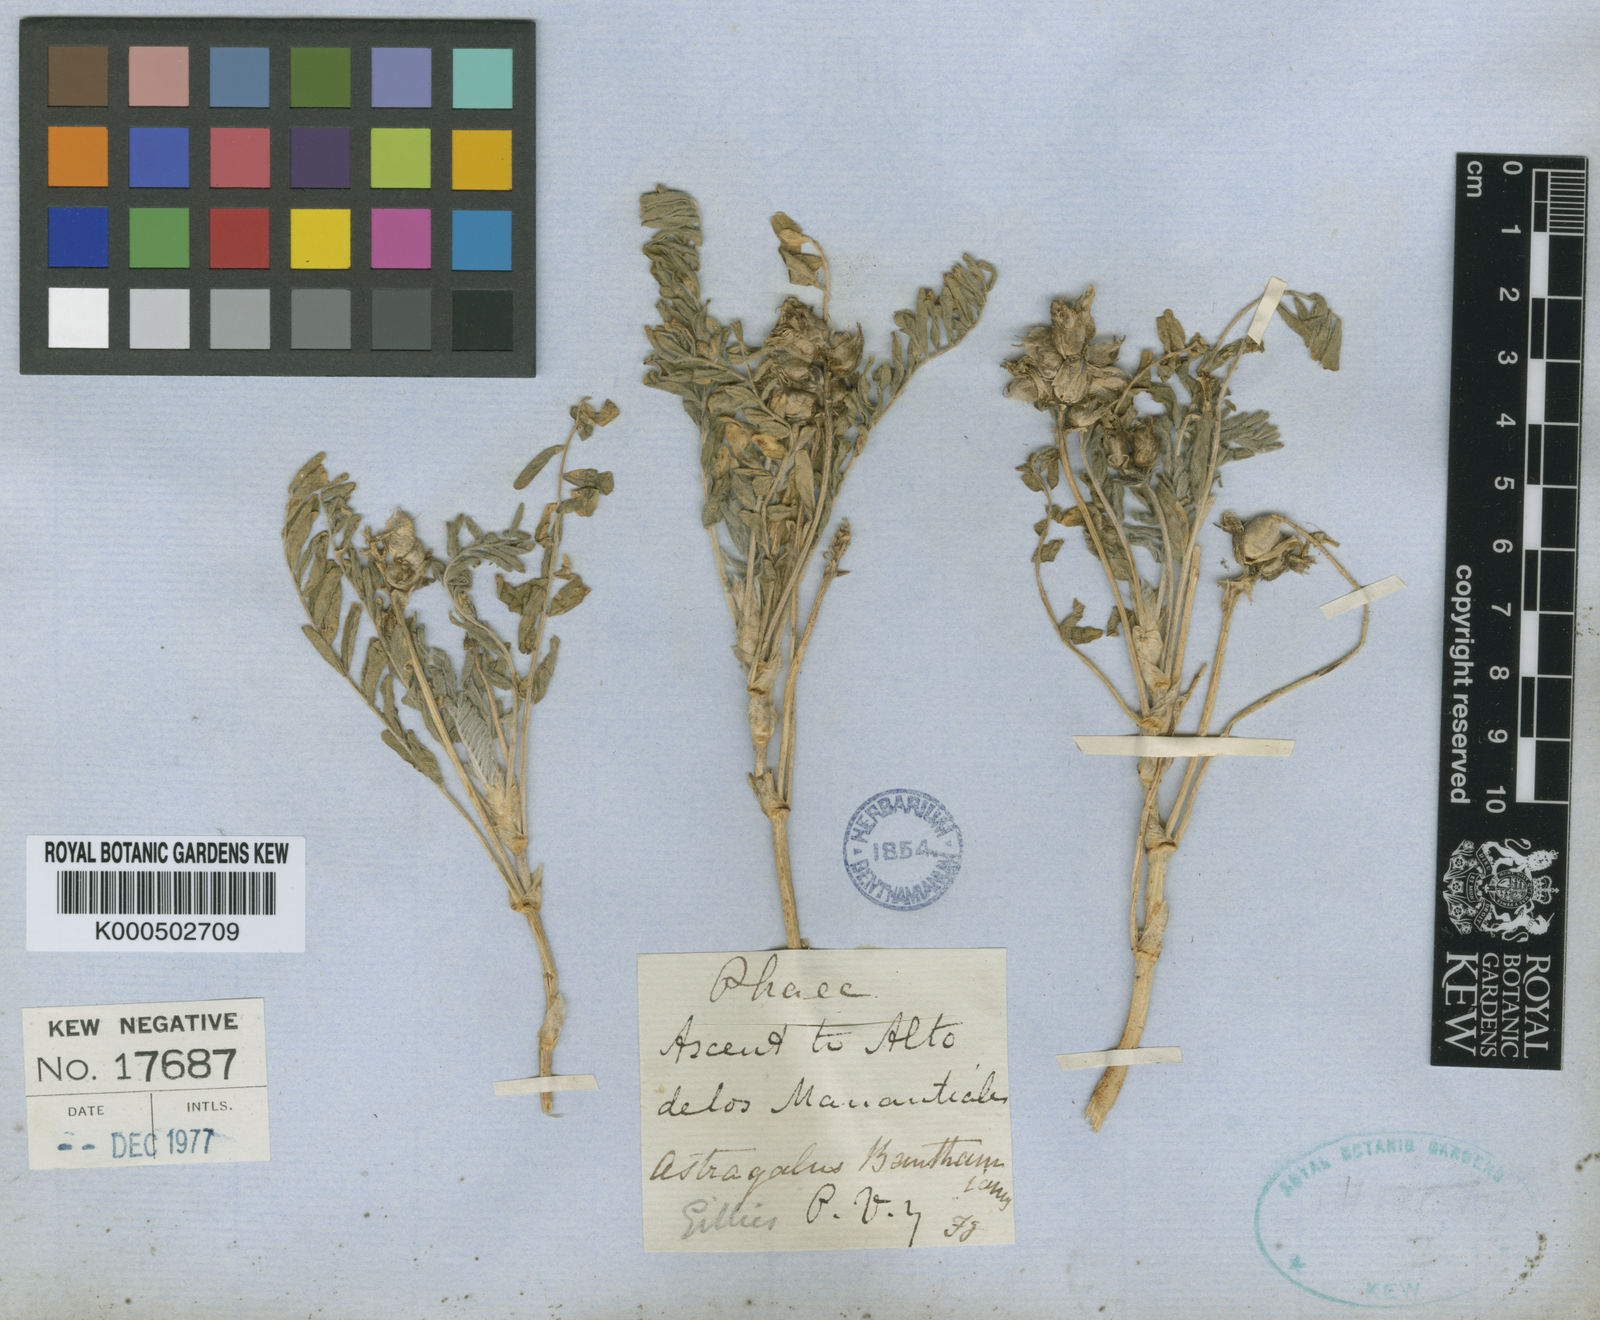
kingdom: Plantae
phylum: Tracheophyta
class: Magnoliopsida
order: Fabales
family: Fabaceae
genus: Astragalus
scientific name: Astragalus garbancillo
